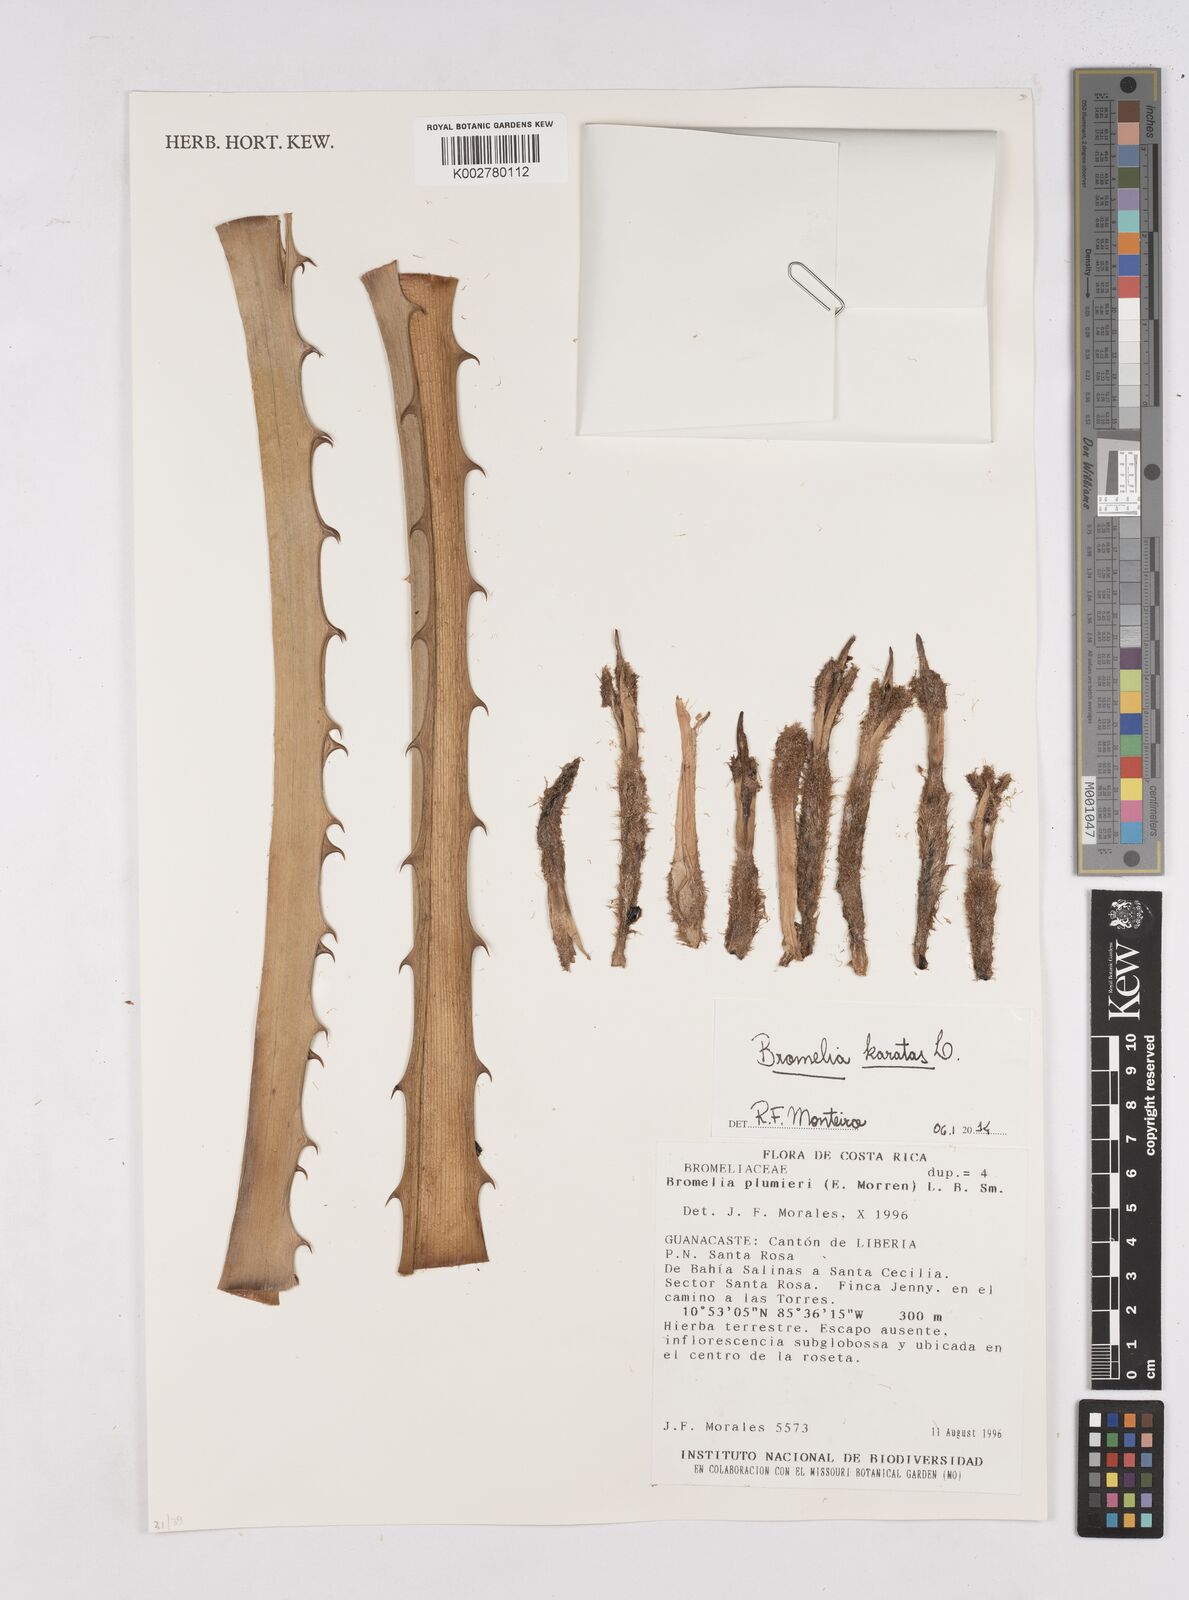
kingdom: Plantae
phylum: Tracheophyta
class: Liliopsida
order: Poales
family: Bromeliaceae
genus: Bromelia
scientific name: Bromelia karatas
